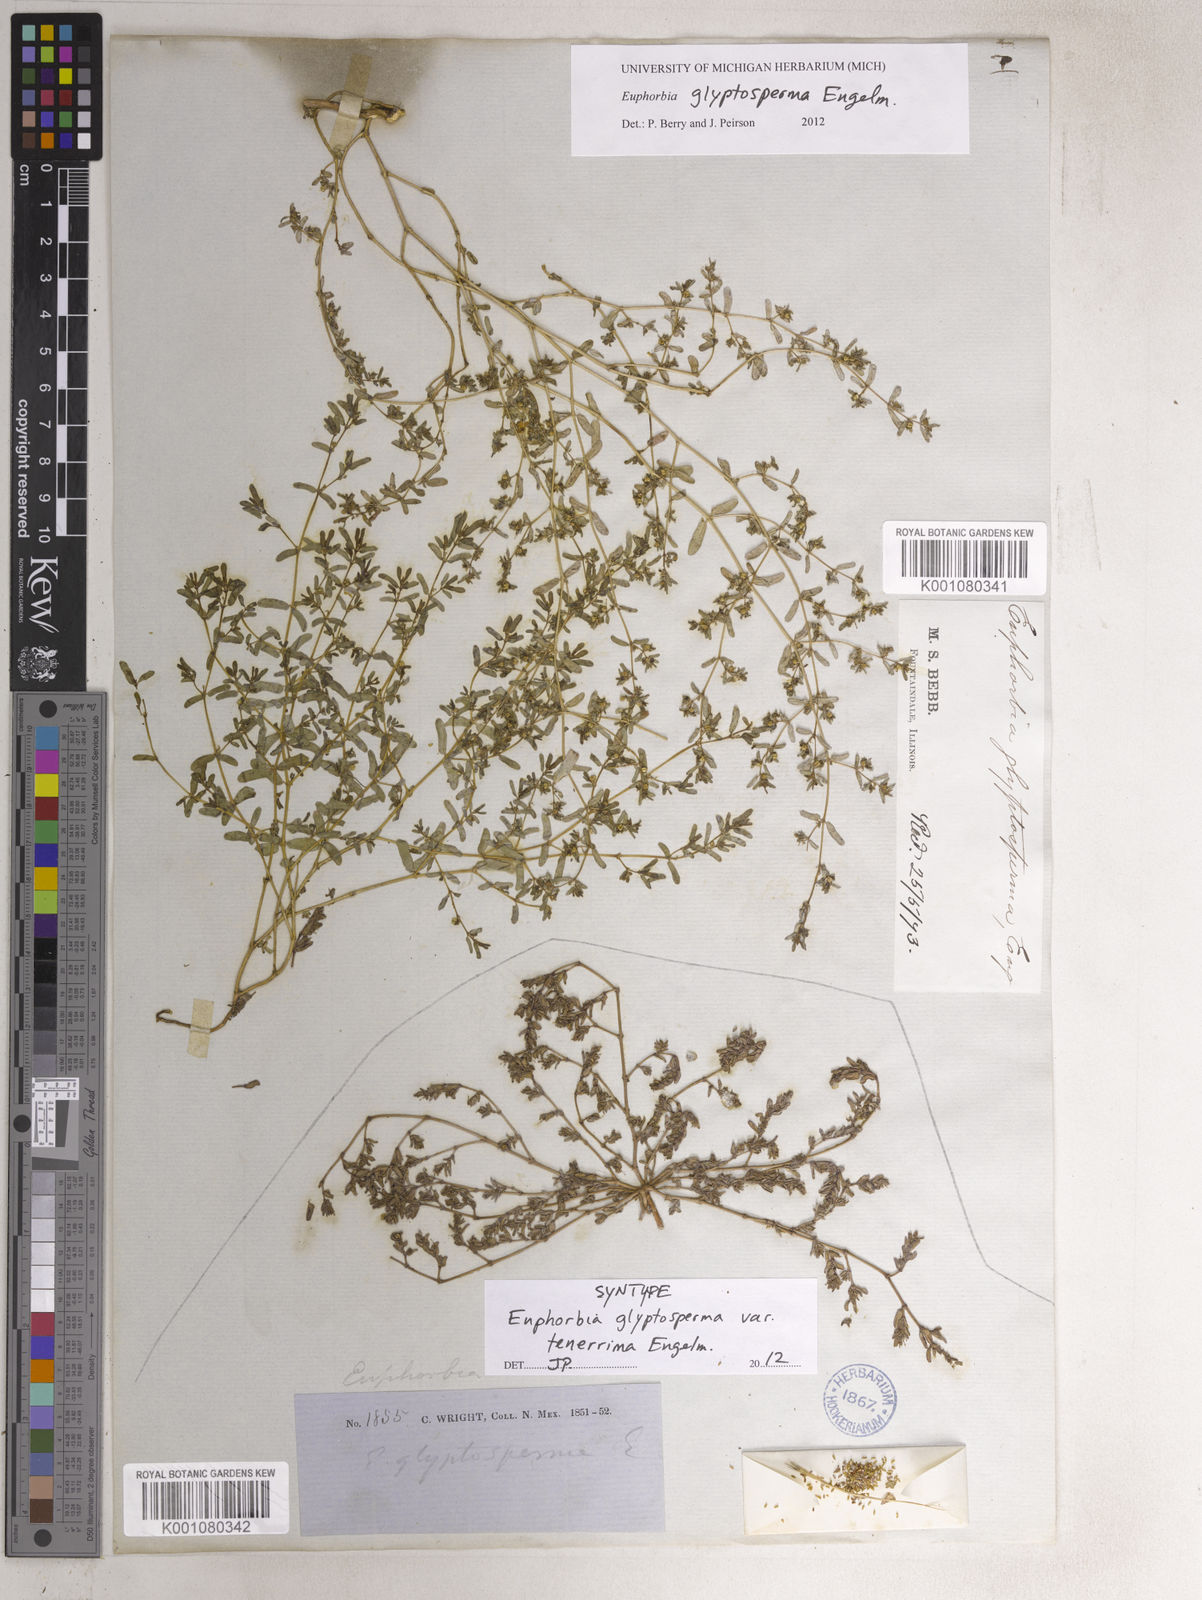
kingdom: Plantae
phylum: Tracheophyta
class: Magnoliopsida
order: Malpighiales
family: Euphorbiaceae
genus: Euphorbia
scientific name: Euphorbia glyptosperma
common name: Corrugate-seeded spurge
